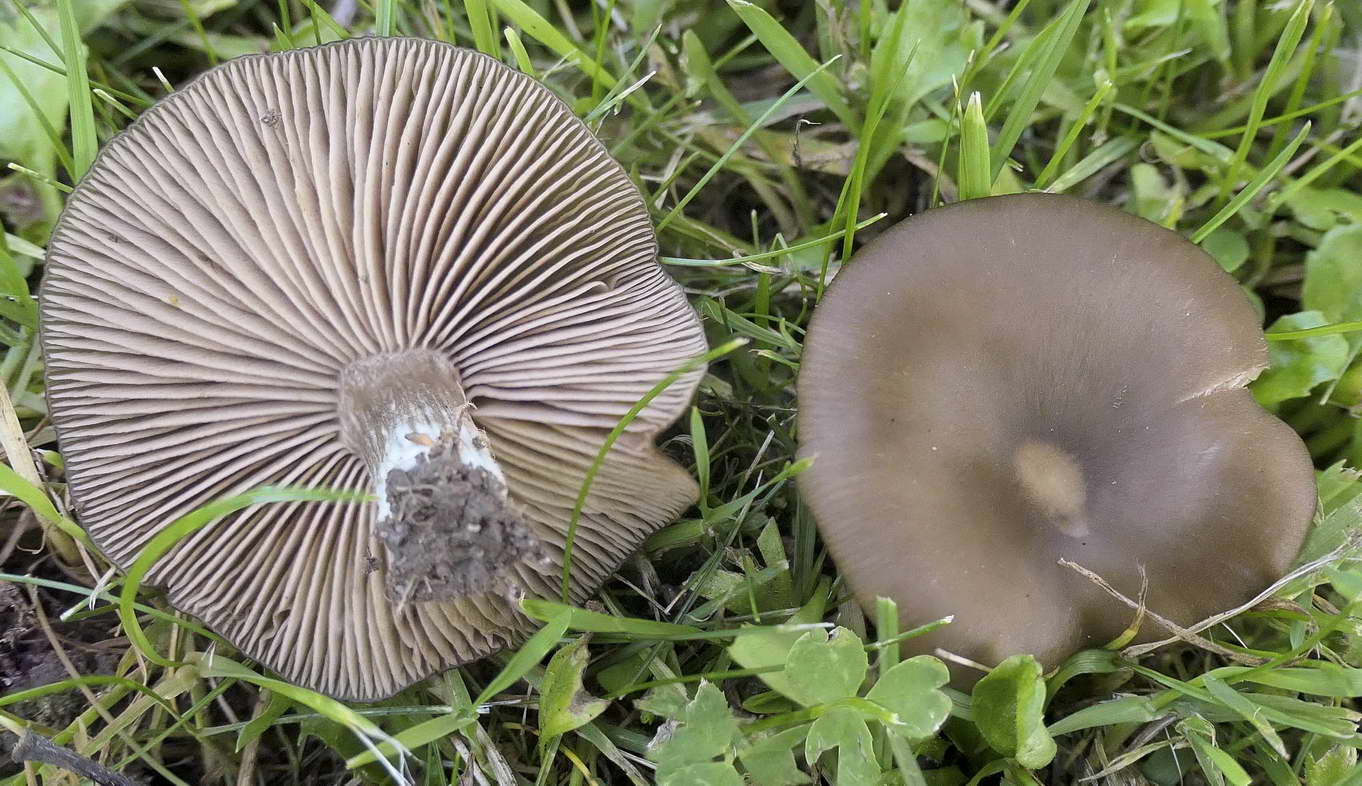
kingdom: Fungi
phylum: Basidiomycota
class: Agaricomycetes
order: Agaricales
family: Entolomataceae
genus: Entoloma
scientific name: Entoloma
